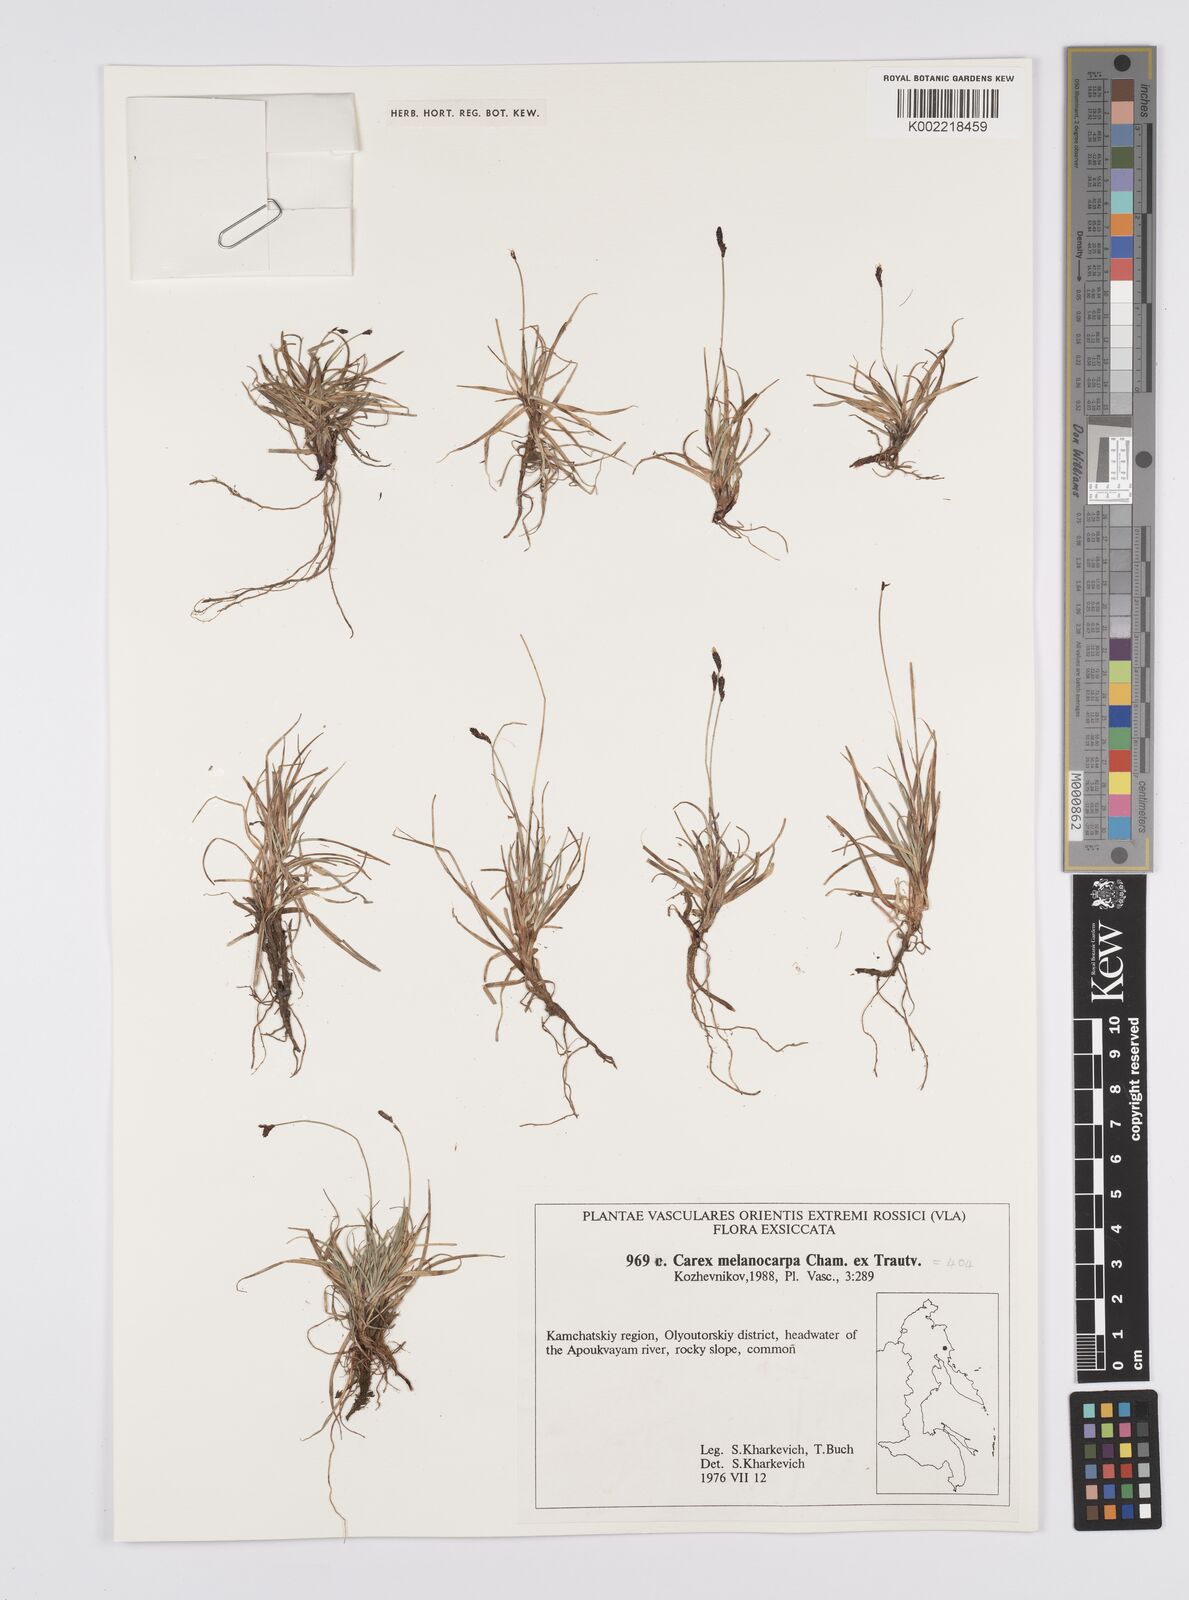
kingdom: Plantae
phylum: Tracheophyta
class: Liliopsida
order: Poales
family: Cyperaceae
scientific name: Cyperaceae
